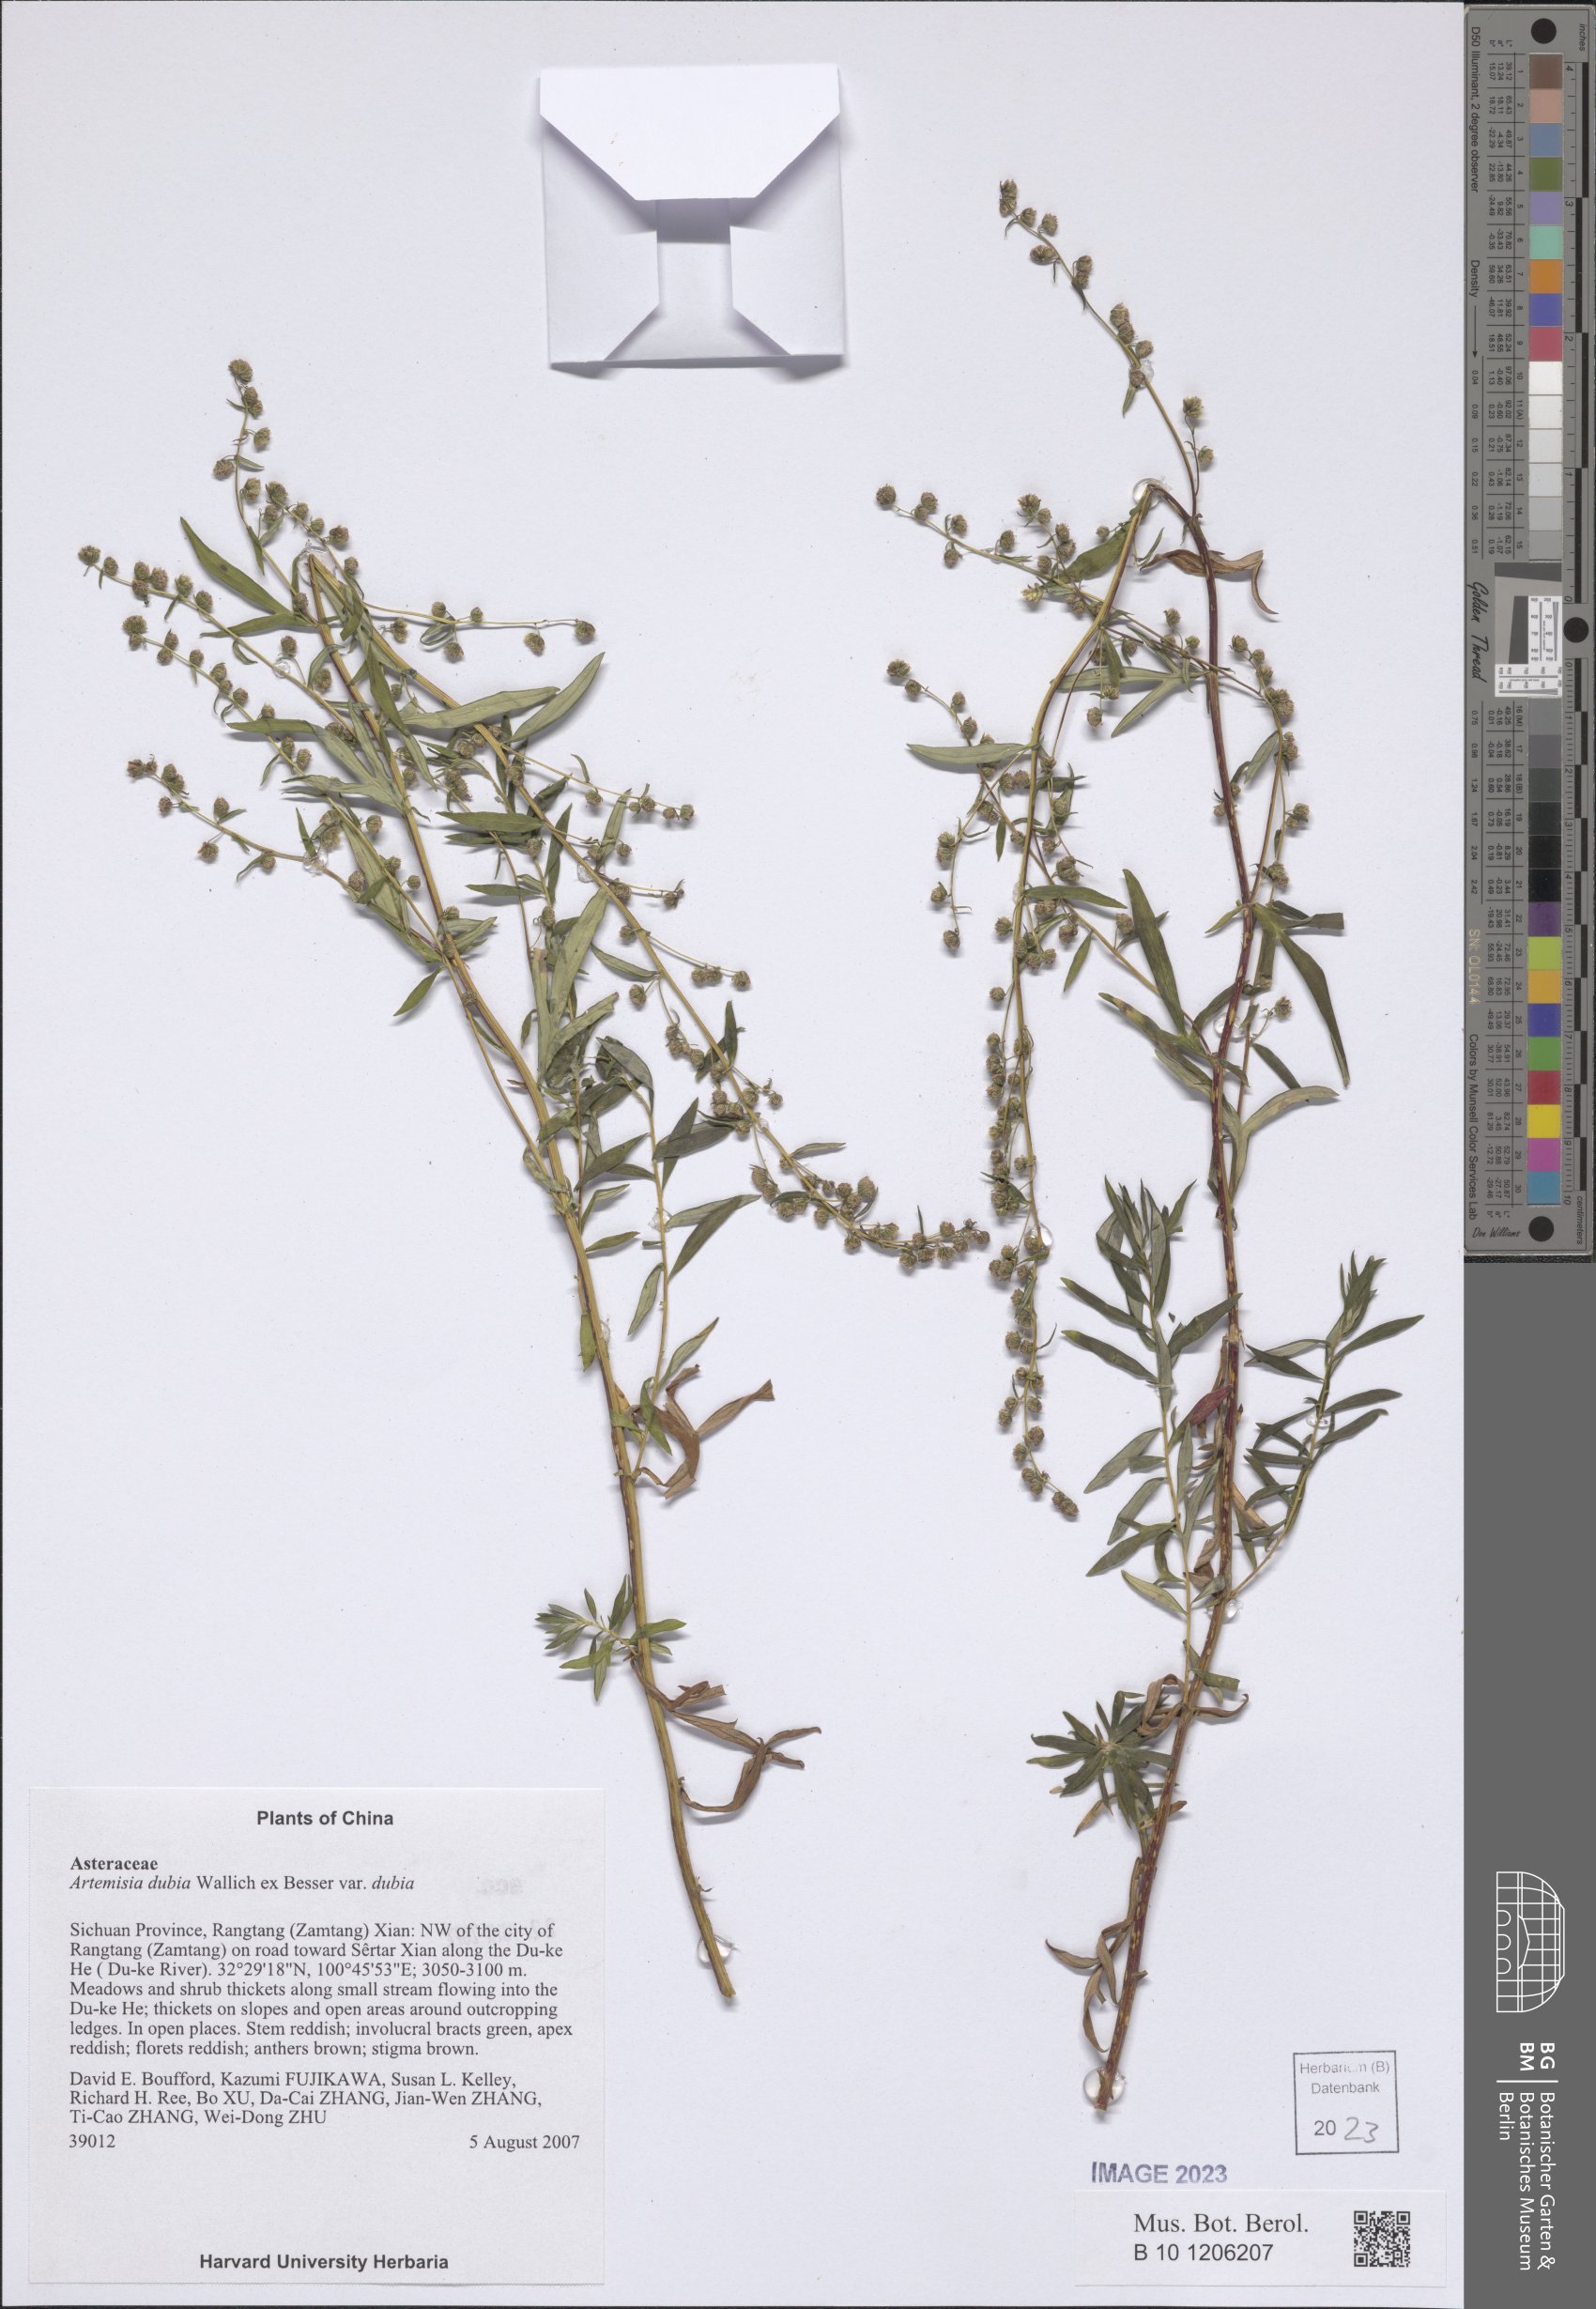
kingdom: Plantae
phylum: Tracheophyta
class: Magnoliopsida
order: Asterales
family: Asteraceae
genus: Artemisia
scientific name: Artemisia dubia
